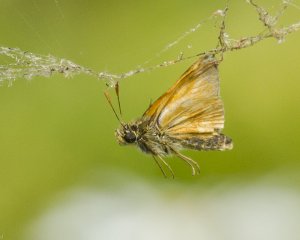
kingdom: Animalia
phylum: Arthropoda
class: Insecta
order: Lepidoptera
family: Hesperiidae
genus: Polites
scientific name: Polites
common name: Long Dash Skipper
